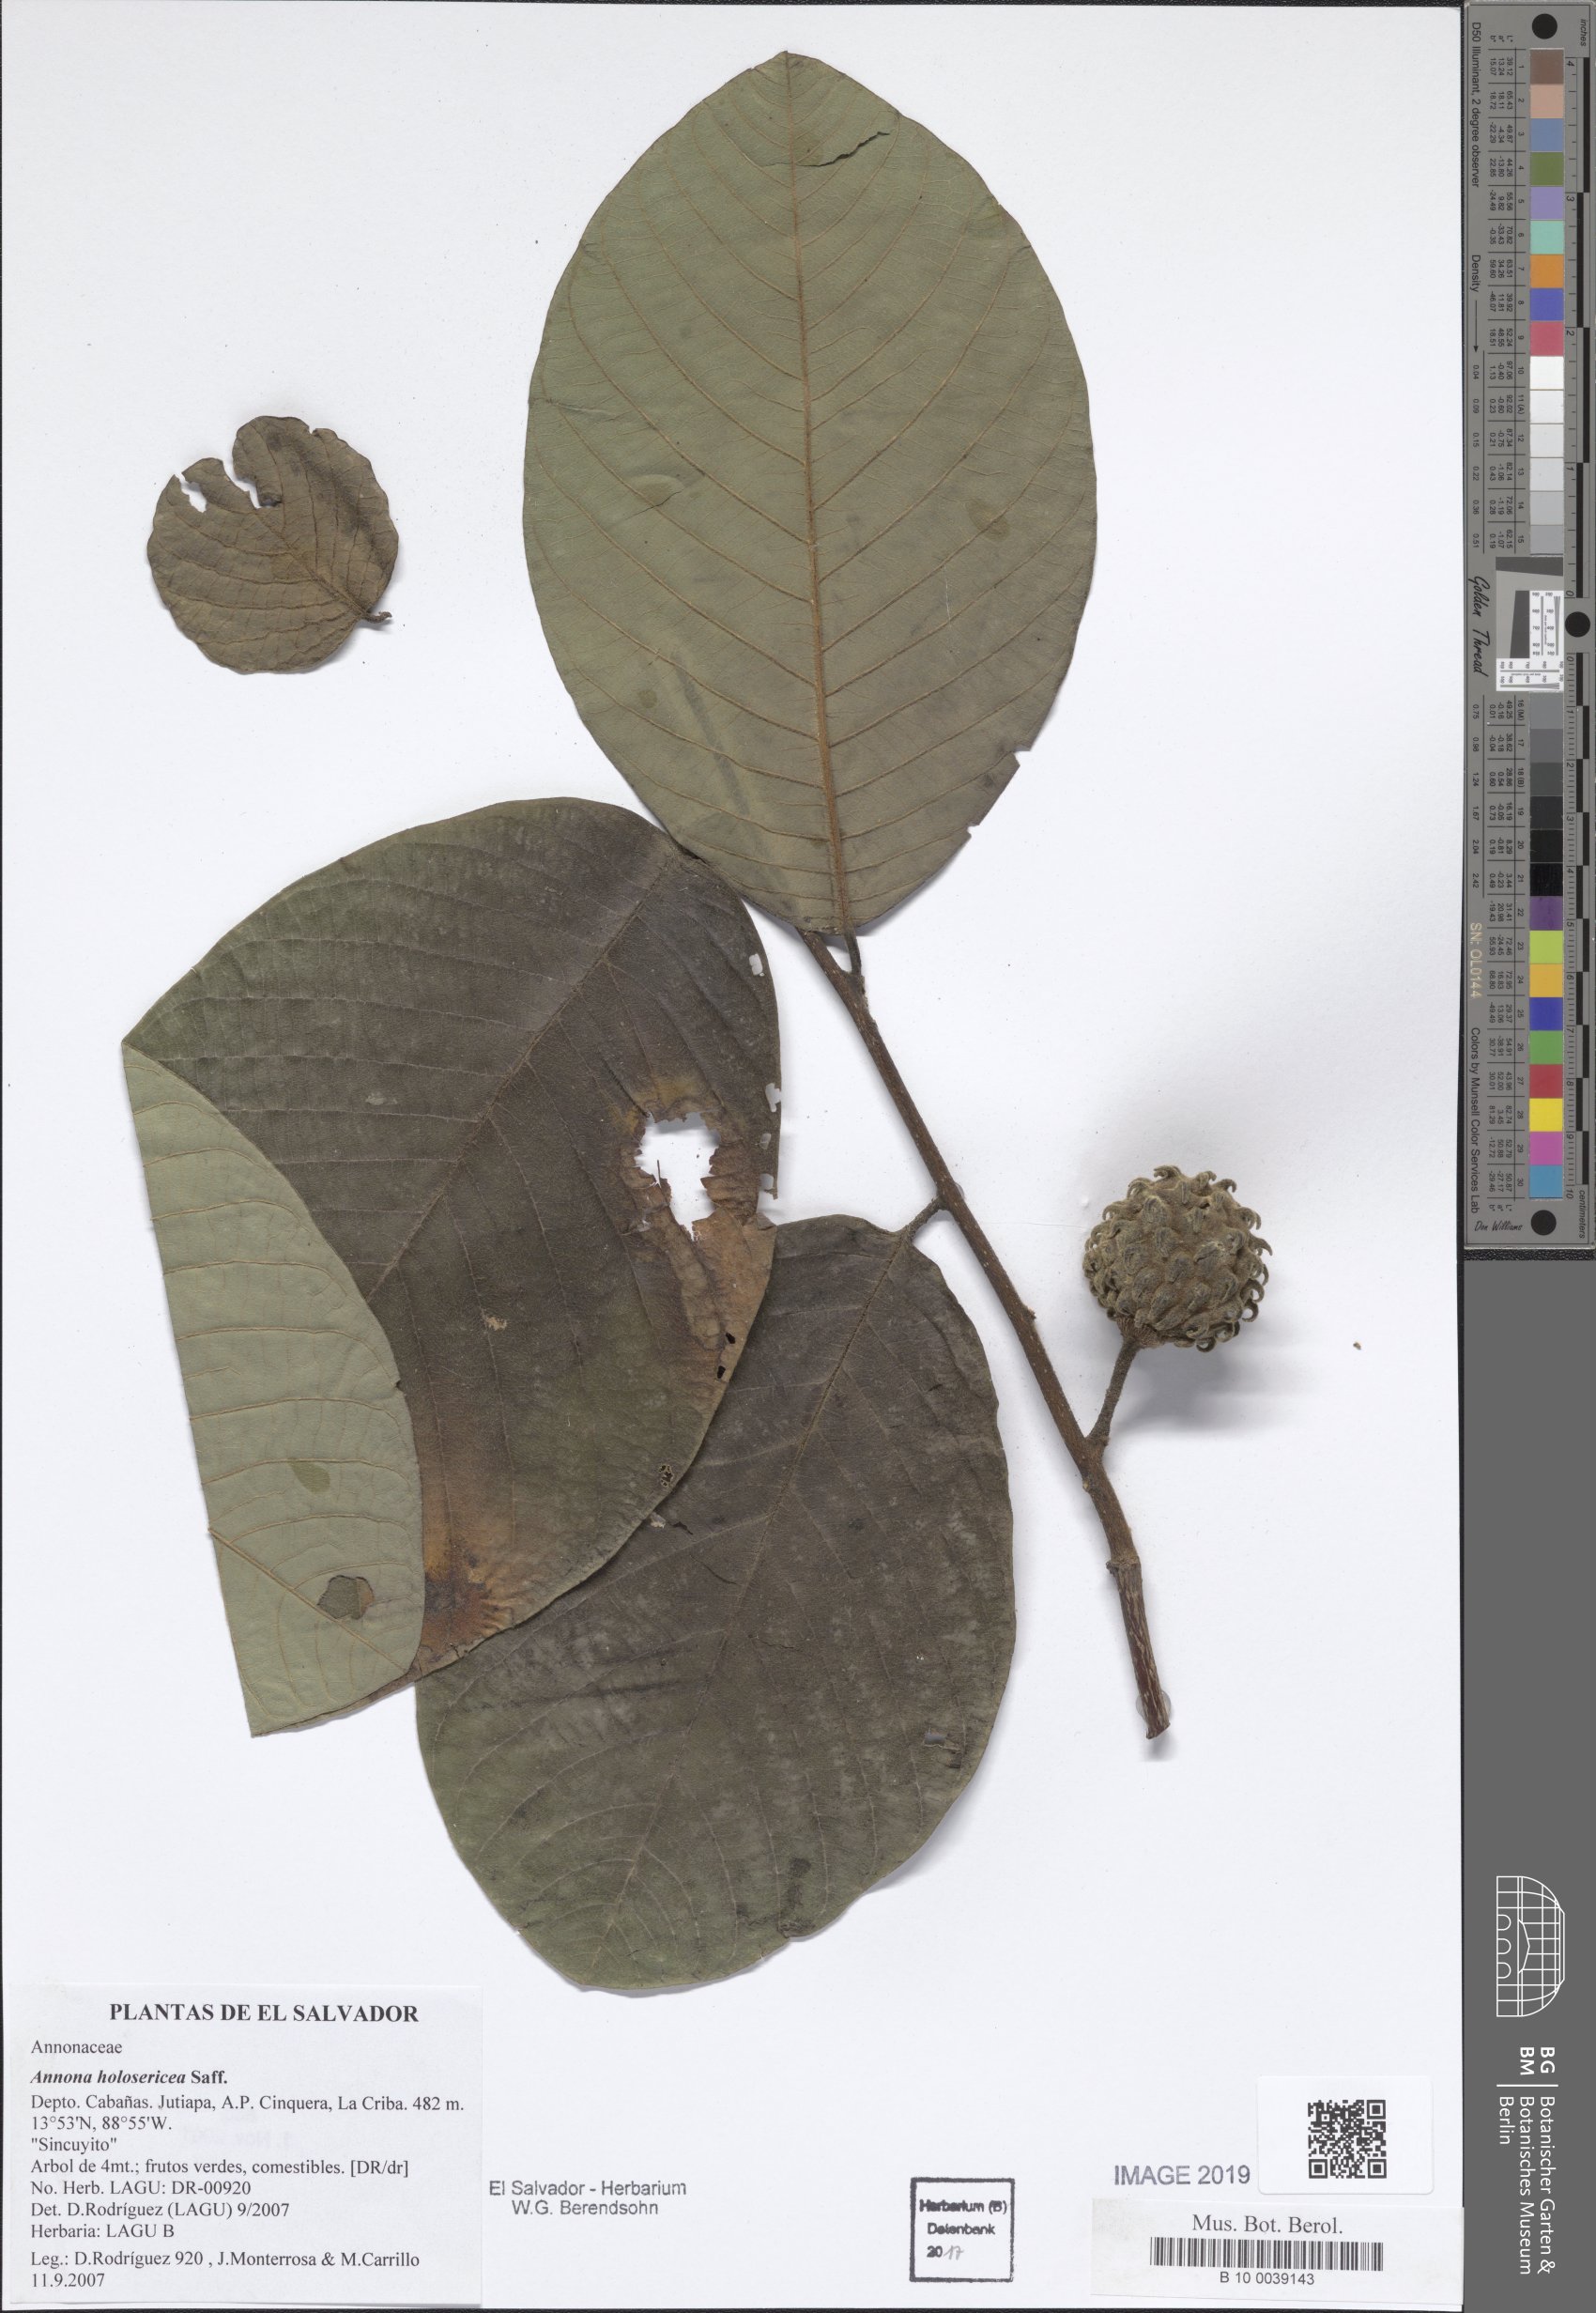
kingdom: Plantae
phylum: Tracheophyta
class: Magnoliopsida
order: Magnoliales
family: Annonaceae
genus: Annona
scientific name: Annona holosericea
